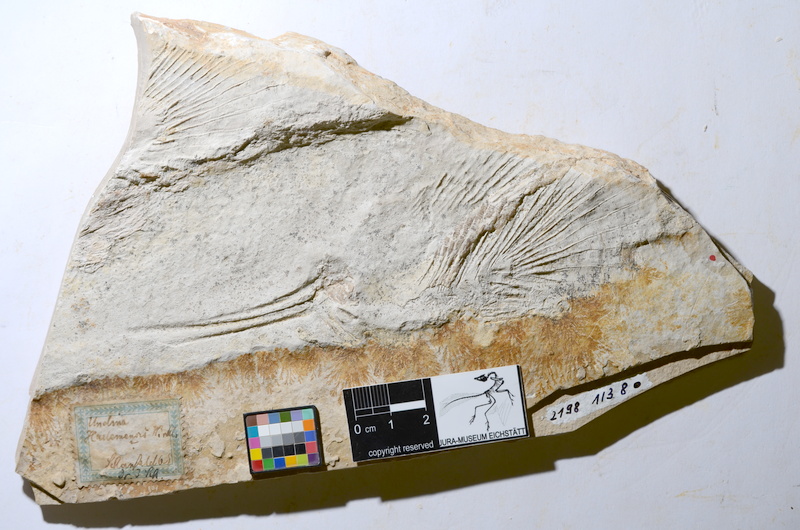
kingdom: Animalia
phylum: Chordata
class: Coelacanthi
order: Coelacanthiformes
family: Latimeroidea
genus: Undina
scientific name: Undina penicillata
